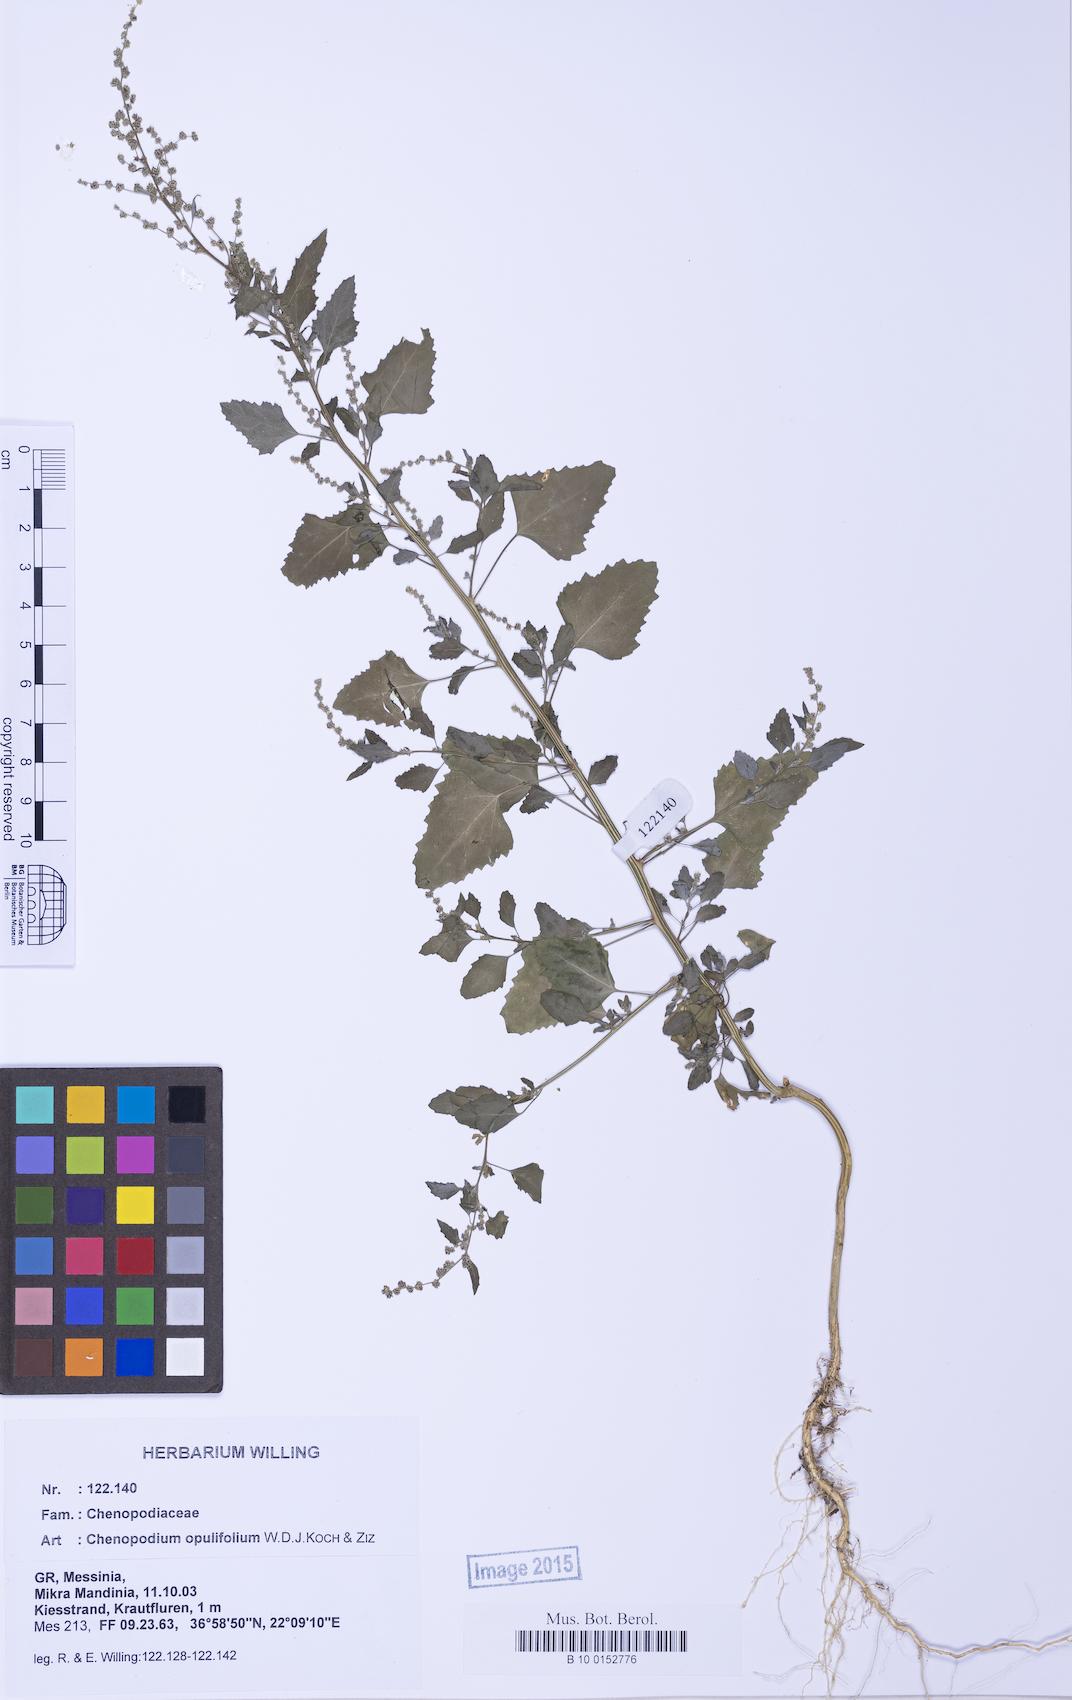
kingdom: Plantae
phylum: Tracheophyta
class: Magnoliopsida
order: Caryophyllales
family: Amaranthaceae
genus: Chenopodium
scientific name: Chenopodium album
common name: Fat-hen
